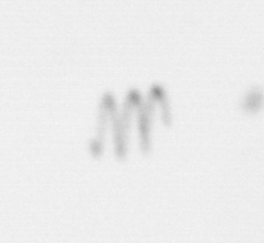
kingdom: Chromista
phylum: Ochrophyta
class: Bacillariophyceae
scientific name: Bacillariophyceae
